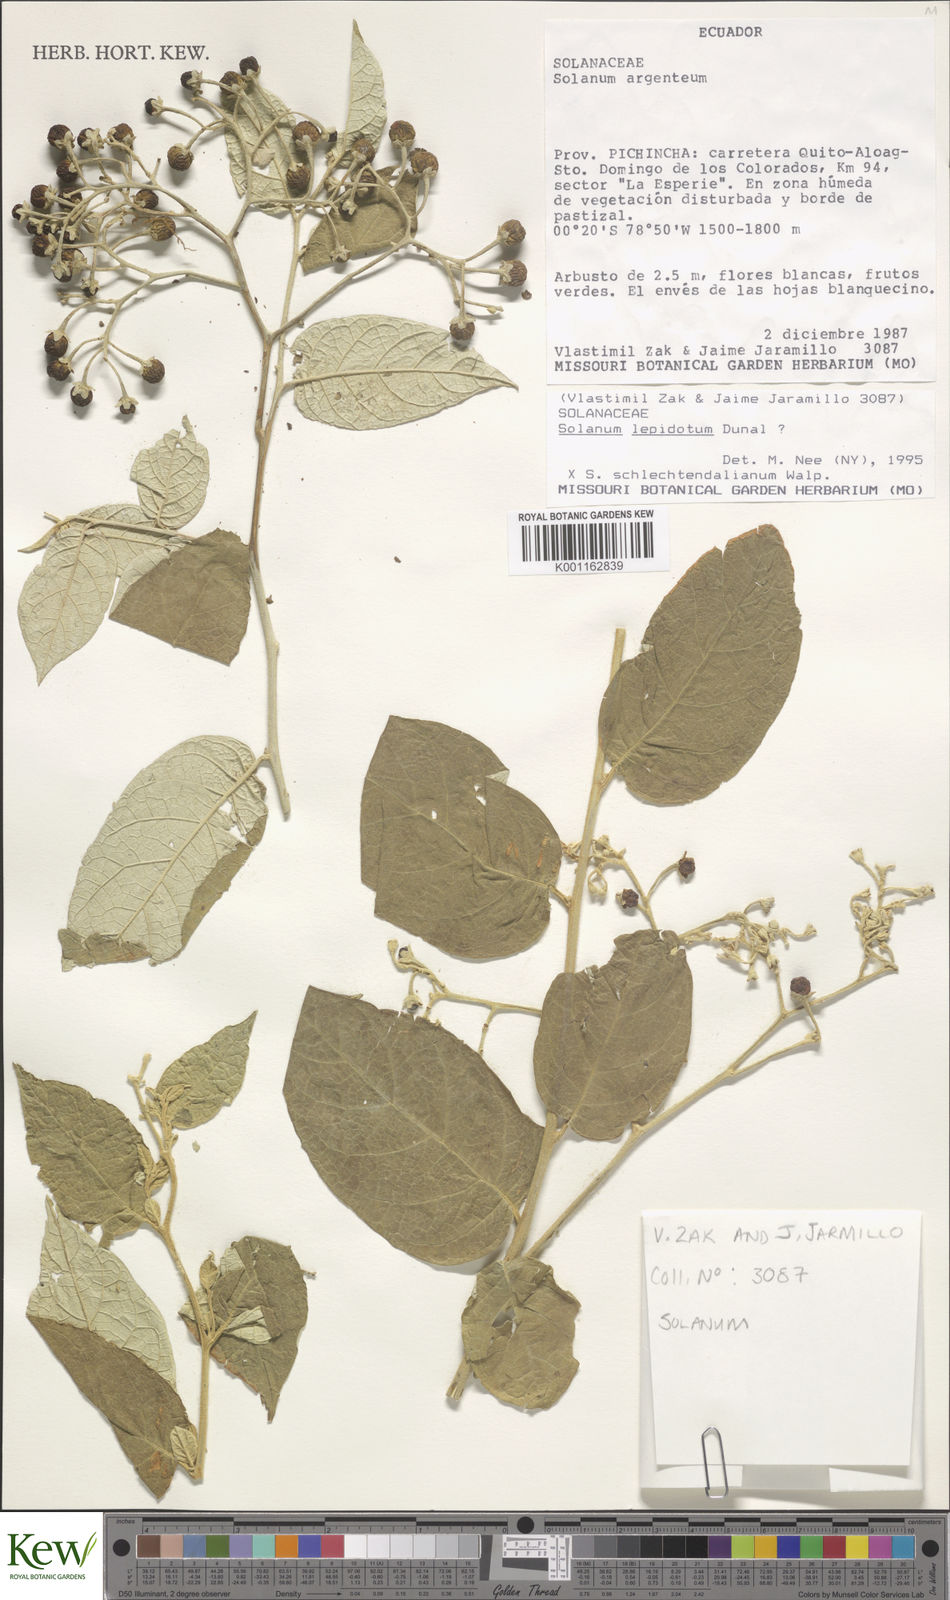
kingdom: Plantae
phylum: Tracheophyta
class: Magnoliopsida
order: Solanales
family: Solanaceae
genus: Solanum
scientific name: Solanum argentinum
